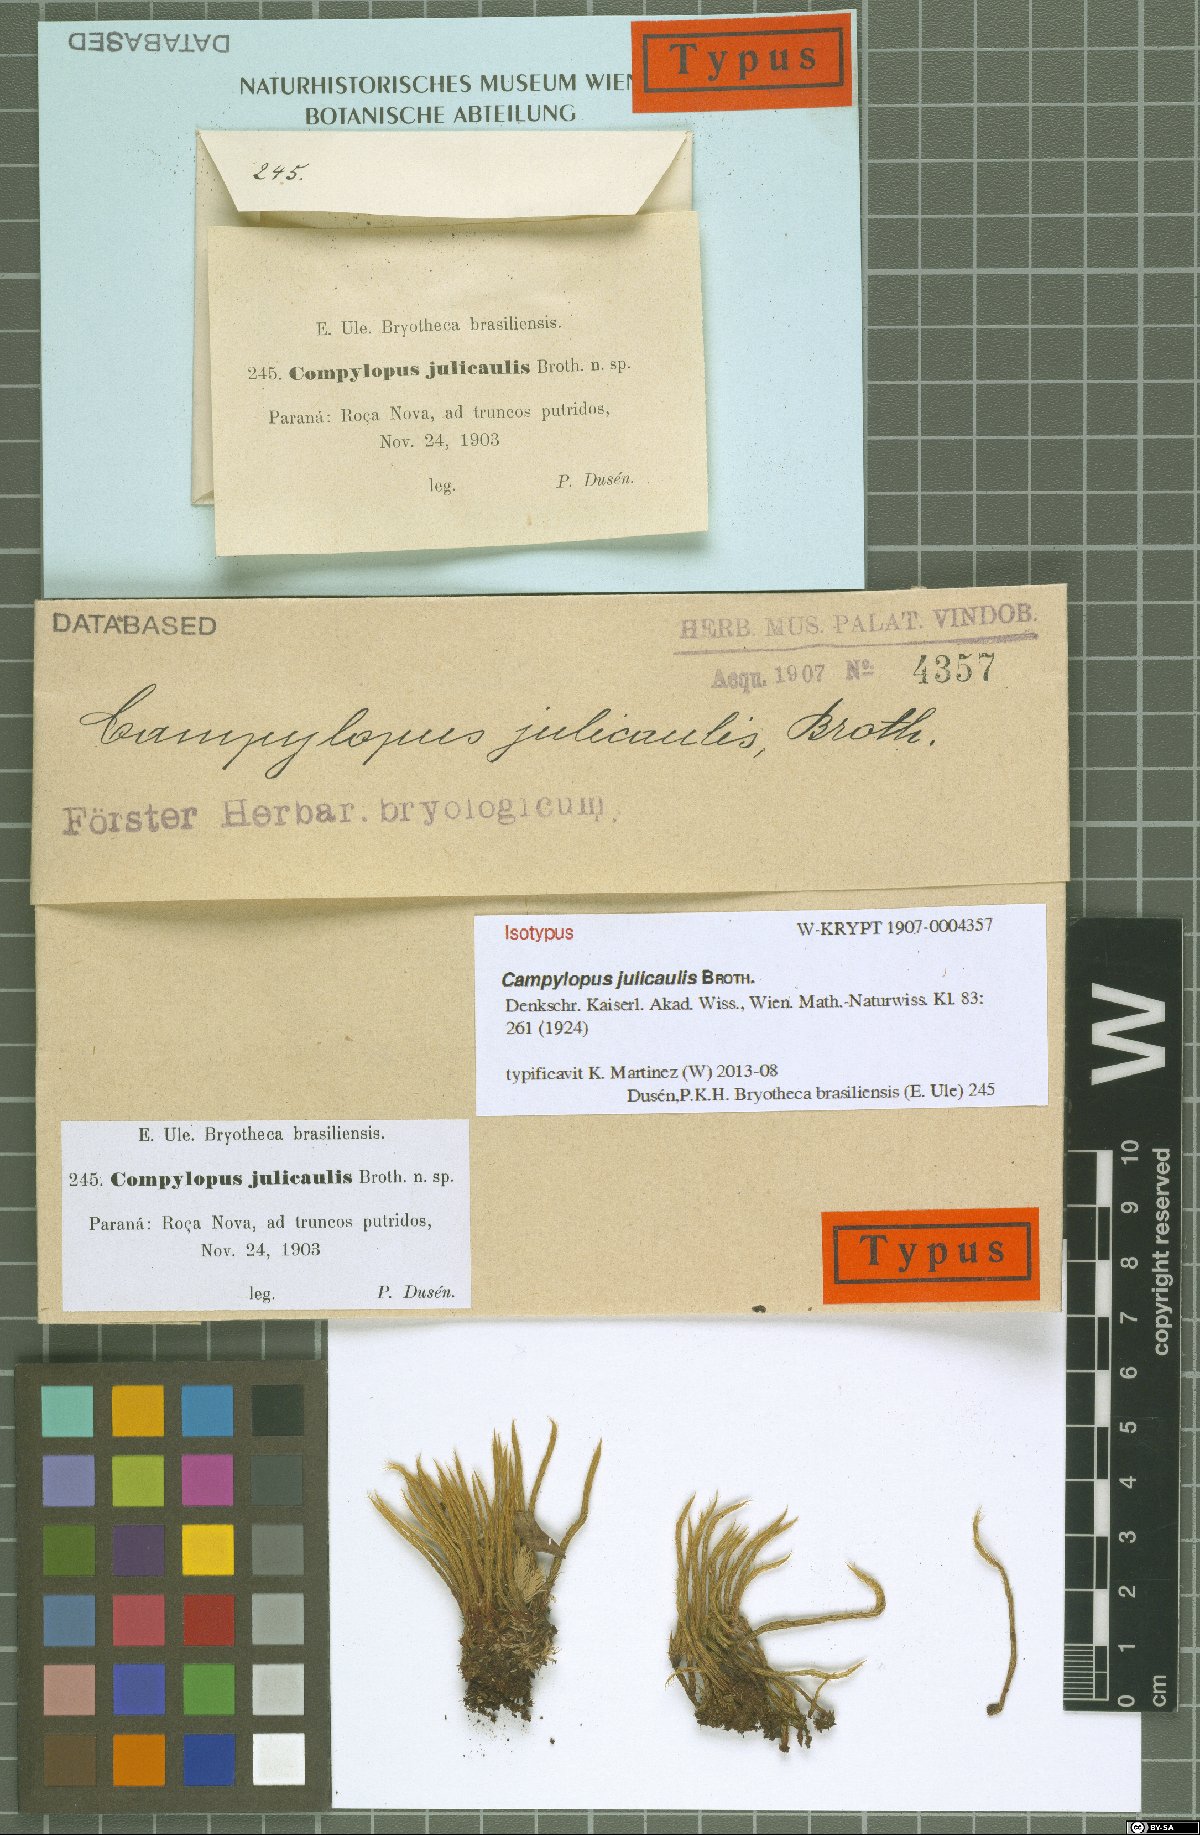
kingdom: Plantae
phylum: Bryophyta
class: Bryopsida
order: Dicranales
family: Leucobryaceae
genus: Campylopus
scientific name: Campylopus julicaulis
